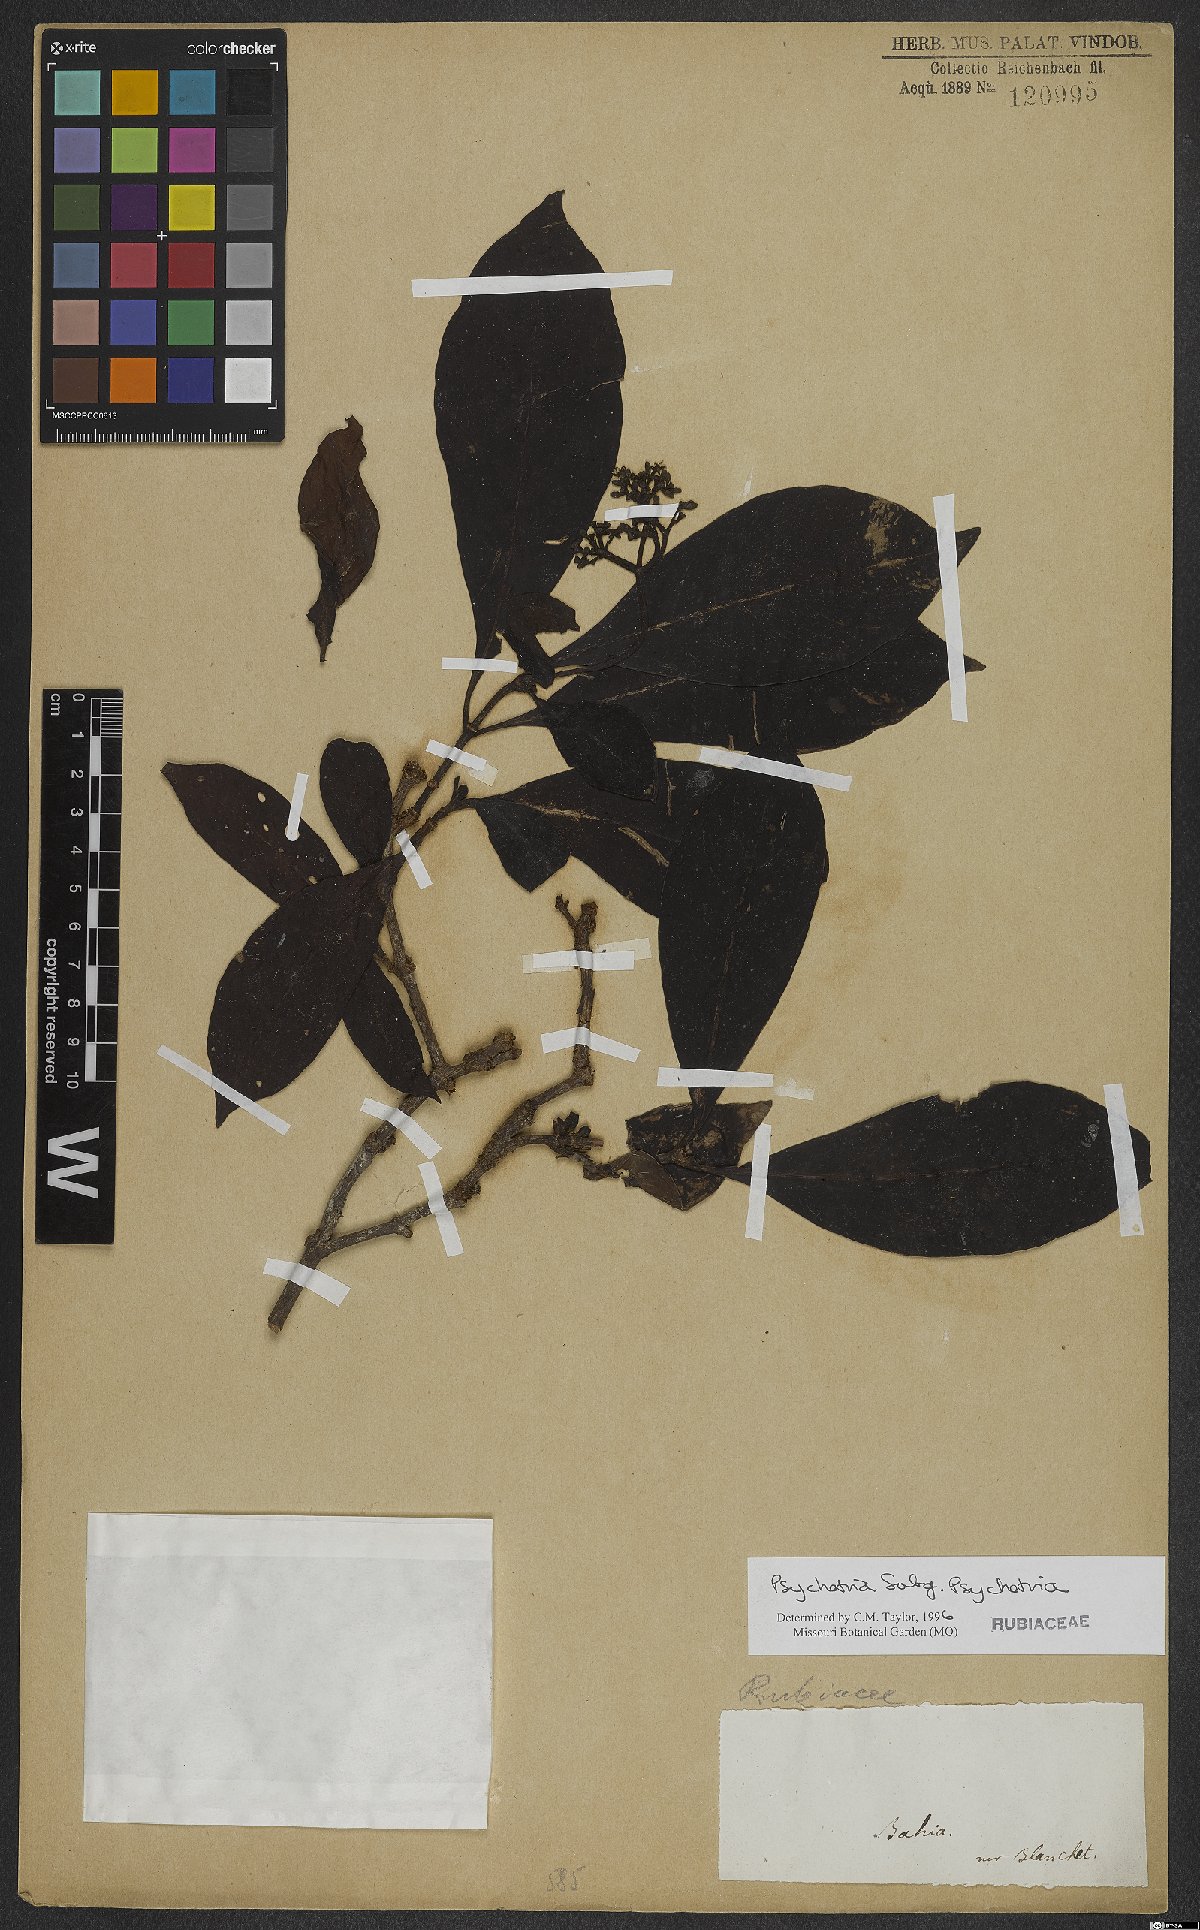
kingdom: Plantae
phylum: Tracheophyta
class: Magnoliopsida
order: Gentianales
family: Rubiaceae
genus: Psychotria
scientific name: Psychotria
